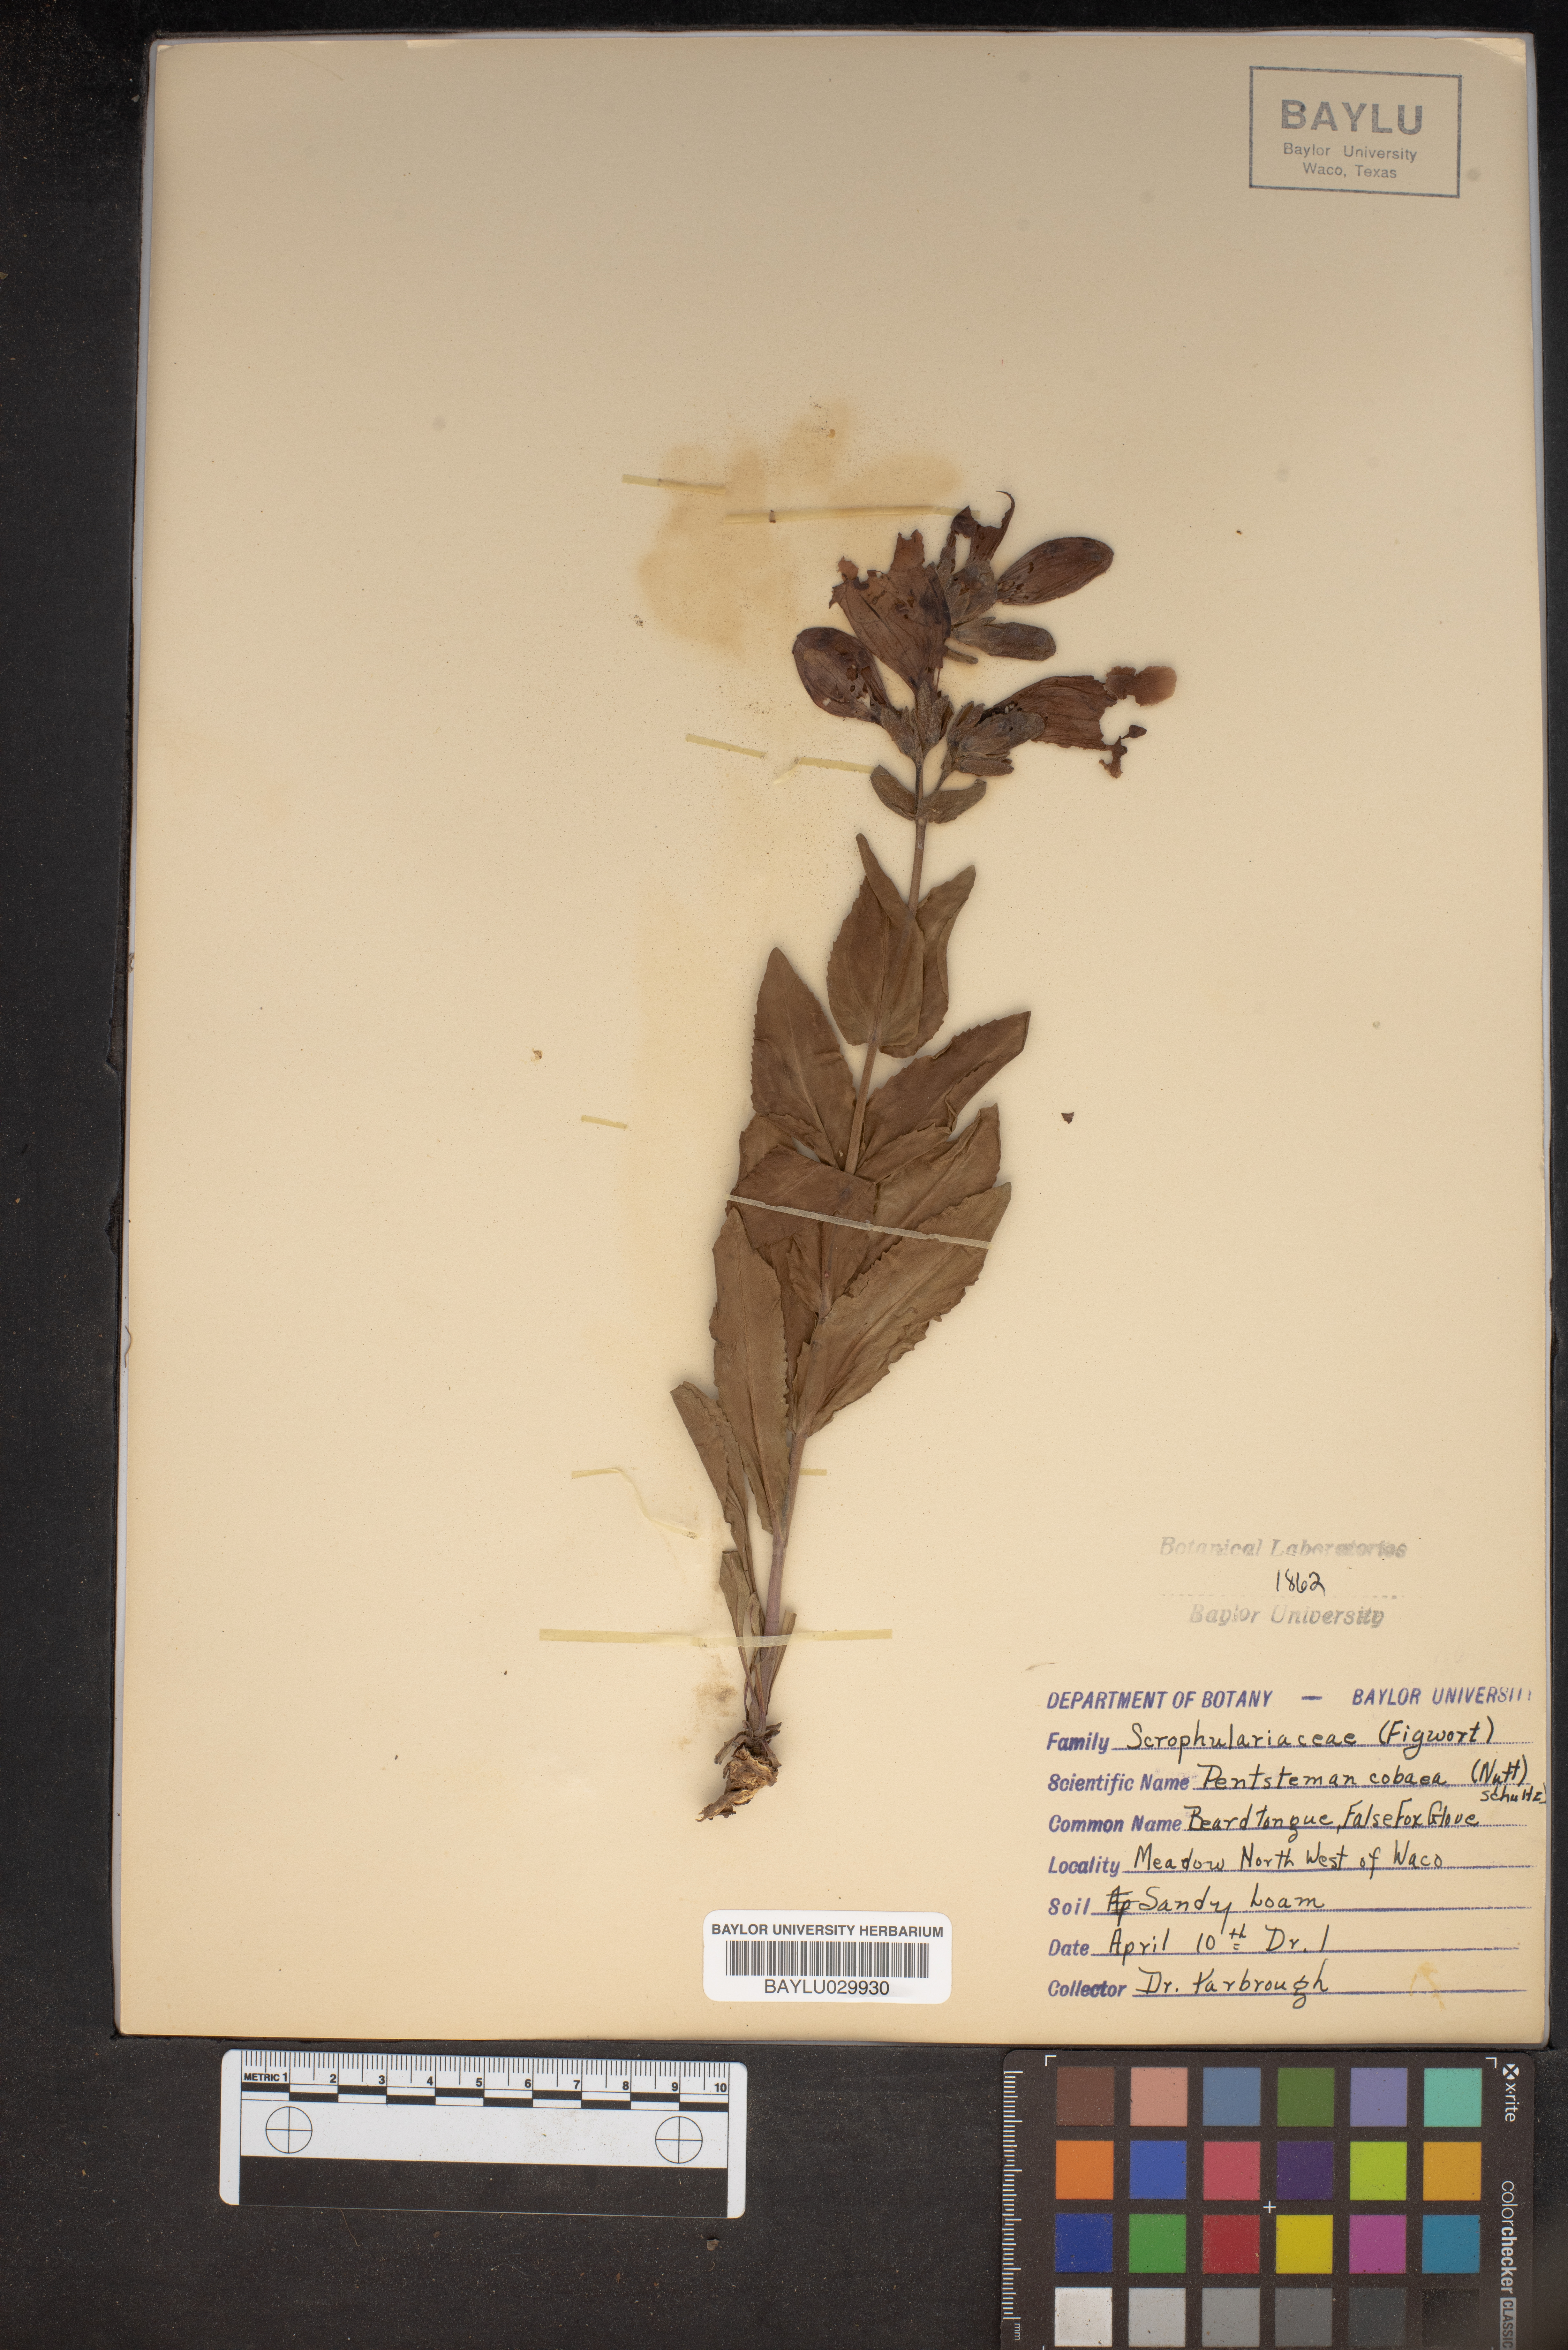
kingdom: Plantae
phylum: Tracheophyta
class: Magnoliopsida
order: Lamiales
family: Plantaginaceae
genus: Penstemon
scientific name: Penstemon cobaea
